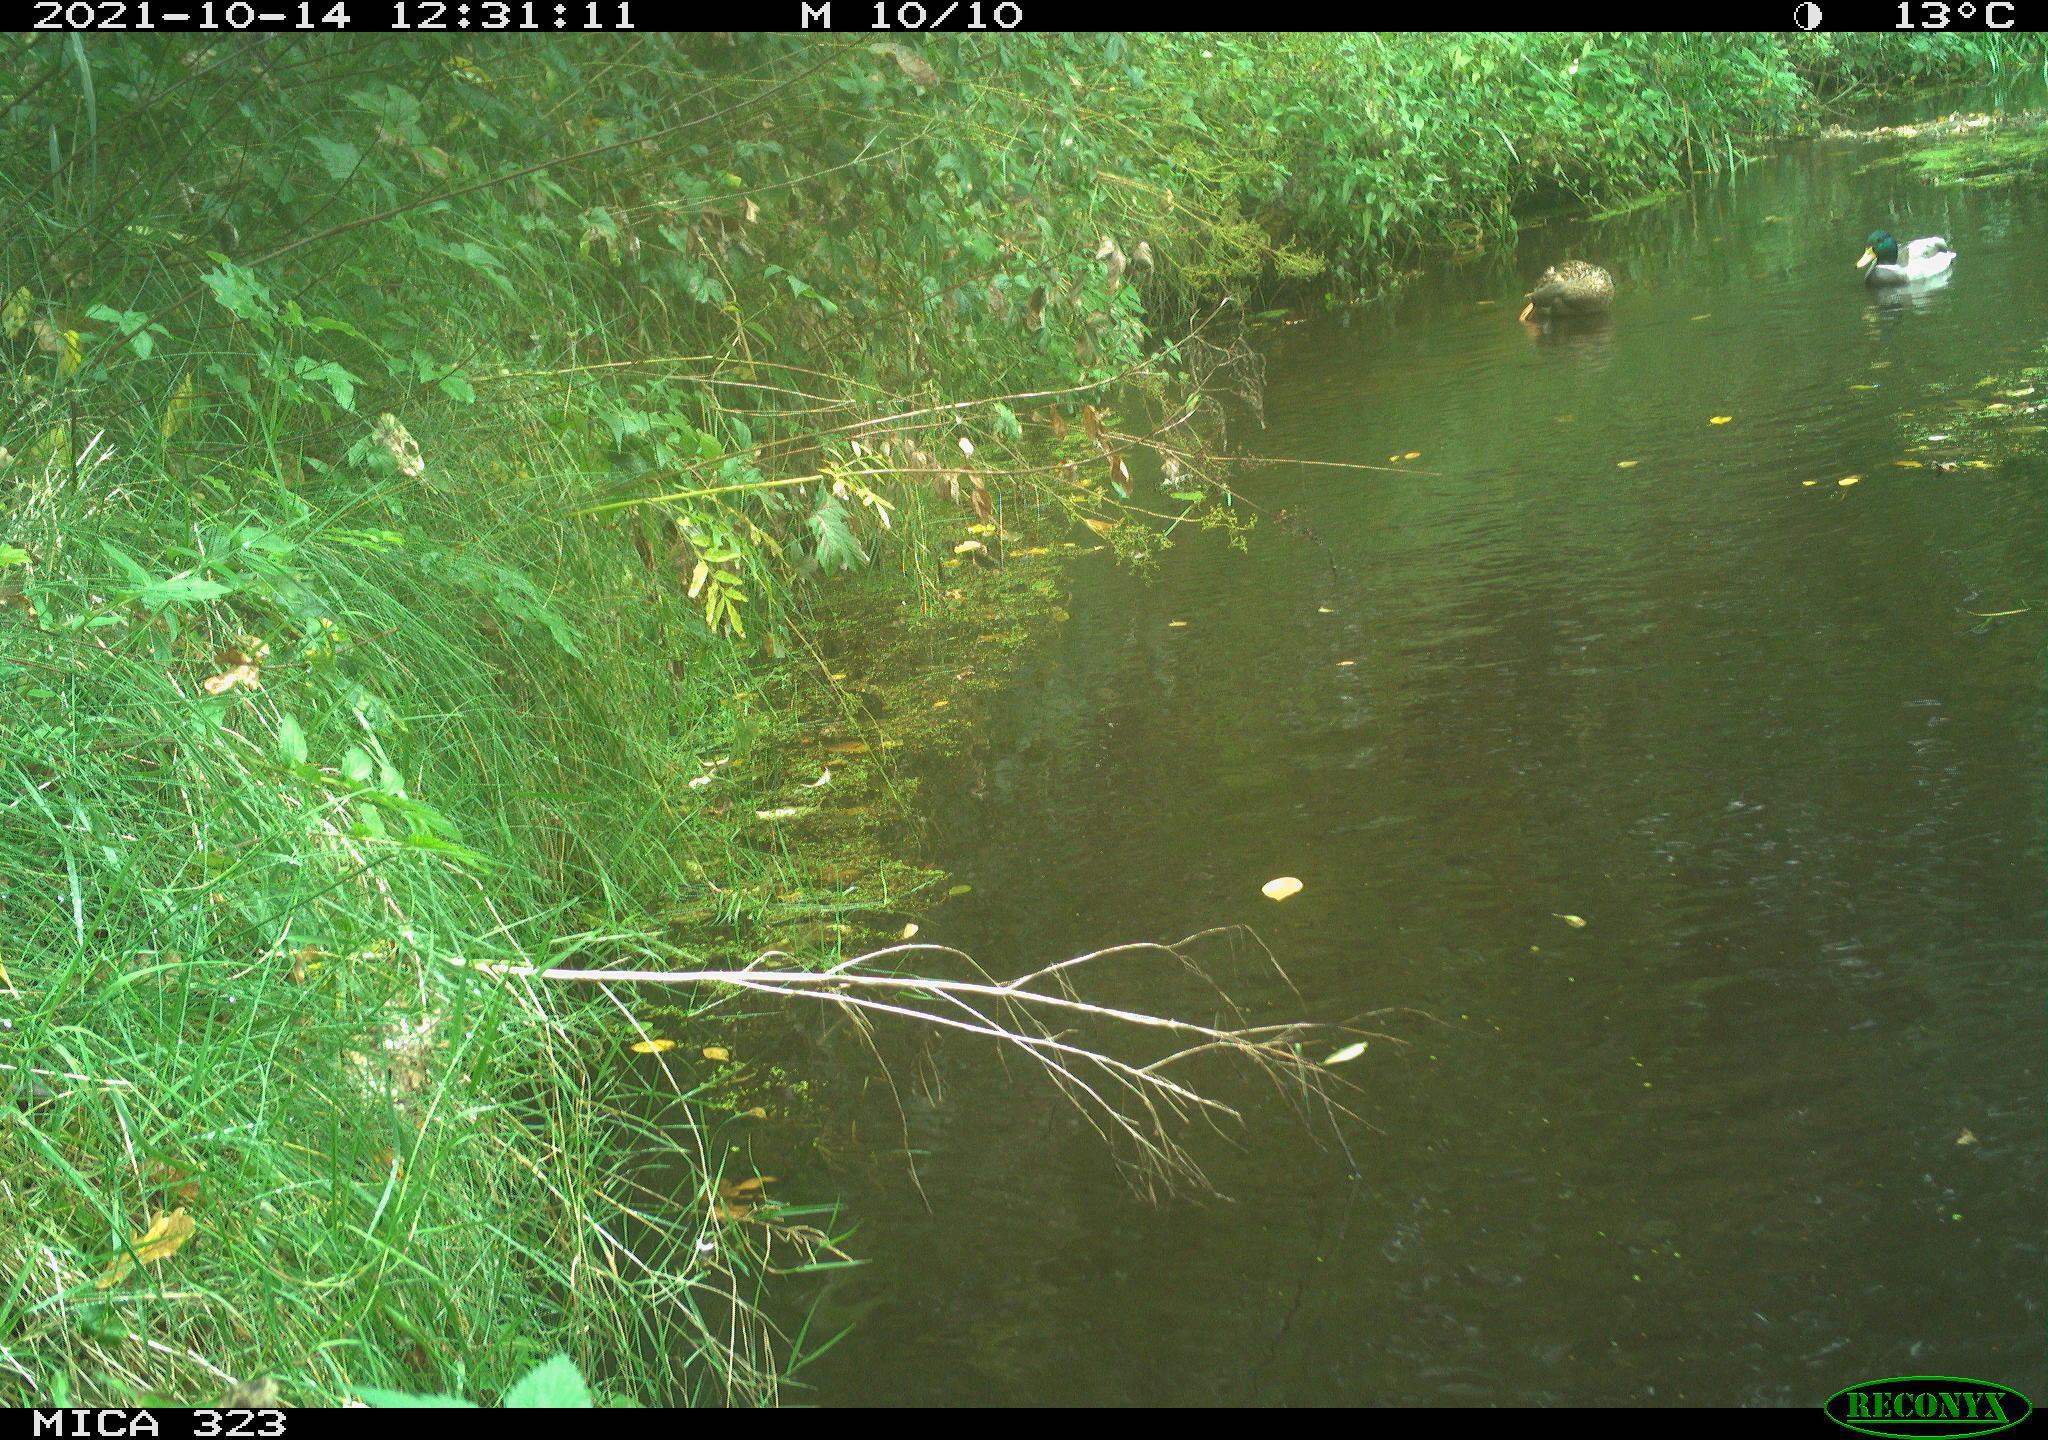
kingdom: Animalia
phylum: Chordata
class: Aves
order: Anseriformes
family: Anatidae
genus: Anas
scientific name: Anas platyrhynchos
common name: Mallard
